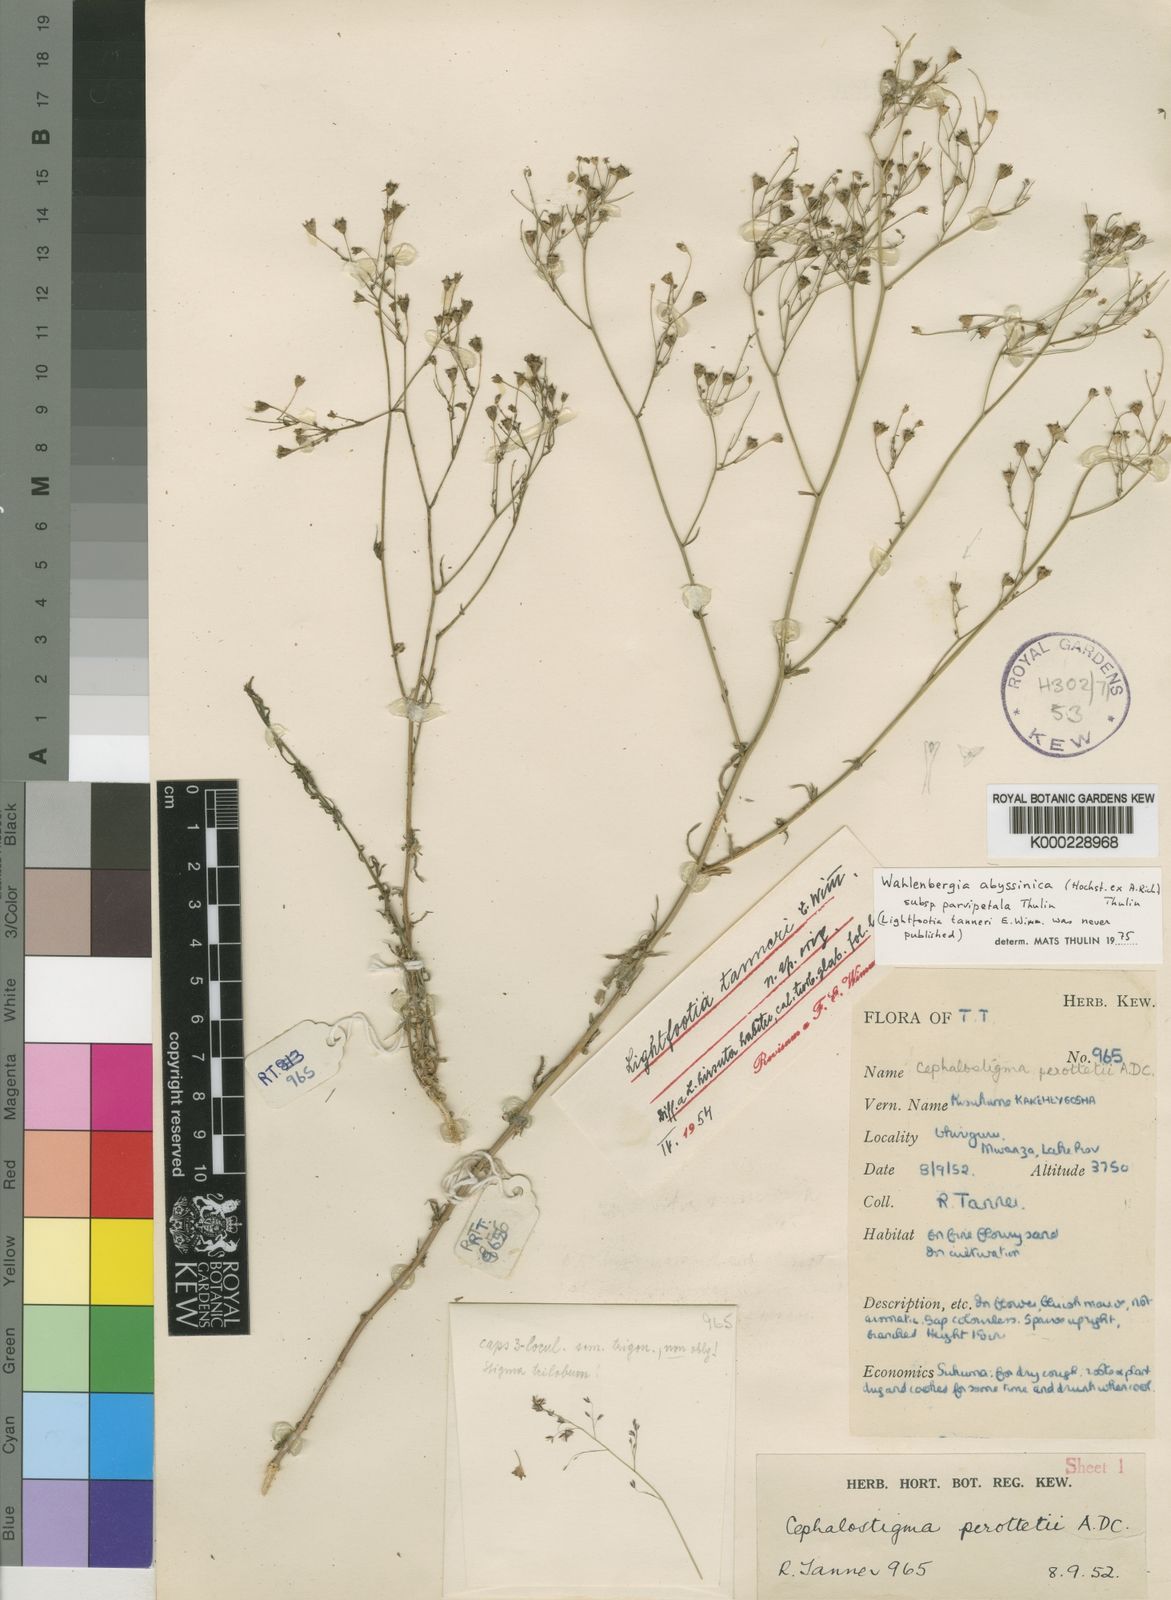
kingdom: Plantae
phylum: Tracheophyta
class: Magnoliopsida
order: Asterales
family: Campanulaceae
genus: Wahlenbergia
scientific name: Wahlenbergia abyssinica
